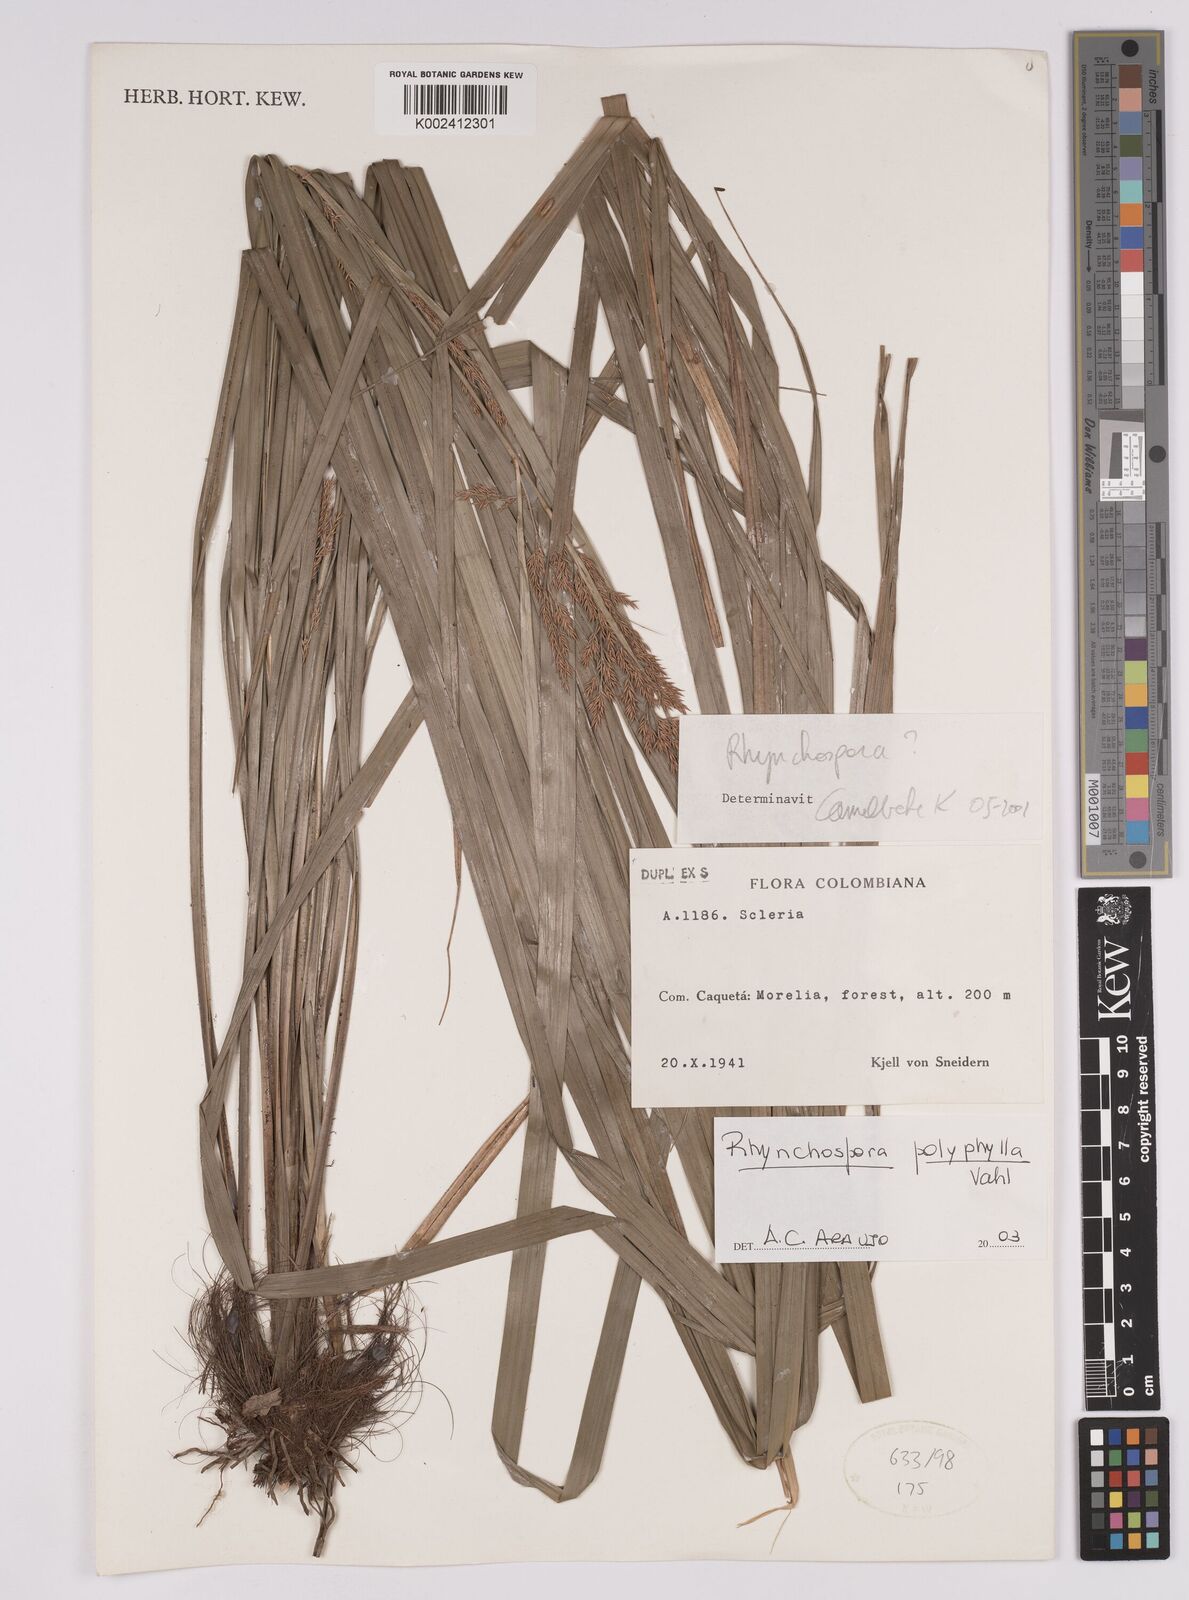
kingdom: Plantae
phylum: Tracheophyta
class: Liliopsida
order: Poales
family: Cyperaceae
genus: Rhynchospora
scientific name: Rhynchospora polyphylla
